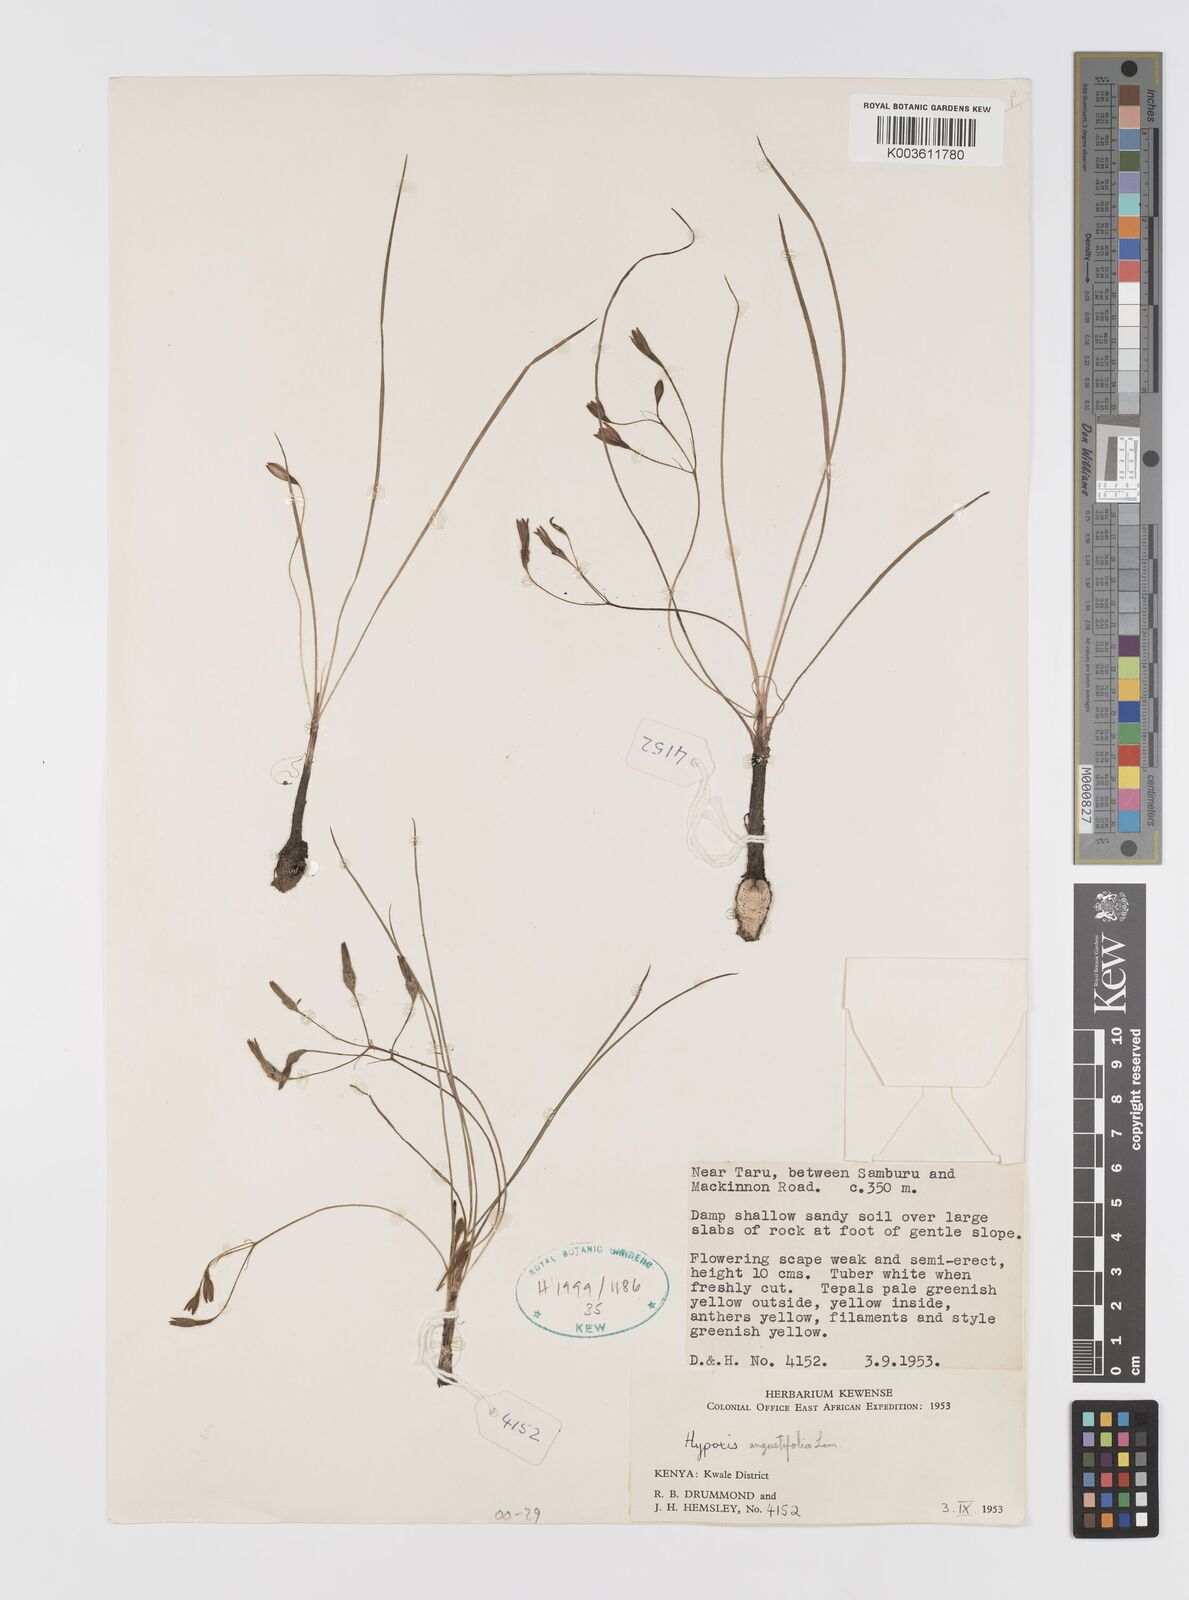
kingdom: Plantae
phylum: Tracheophyta
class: Liliopsida
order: Asparagales
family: Hypoxidaceae
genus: Hypoxis
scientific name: Hypoxis angustifolia
